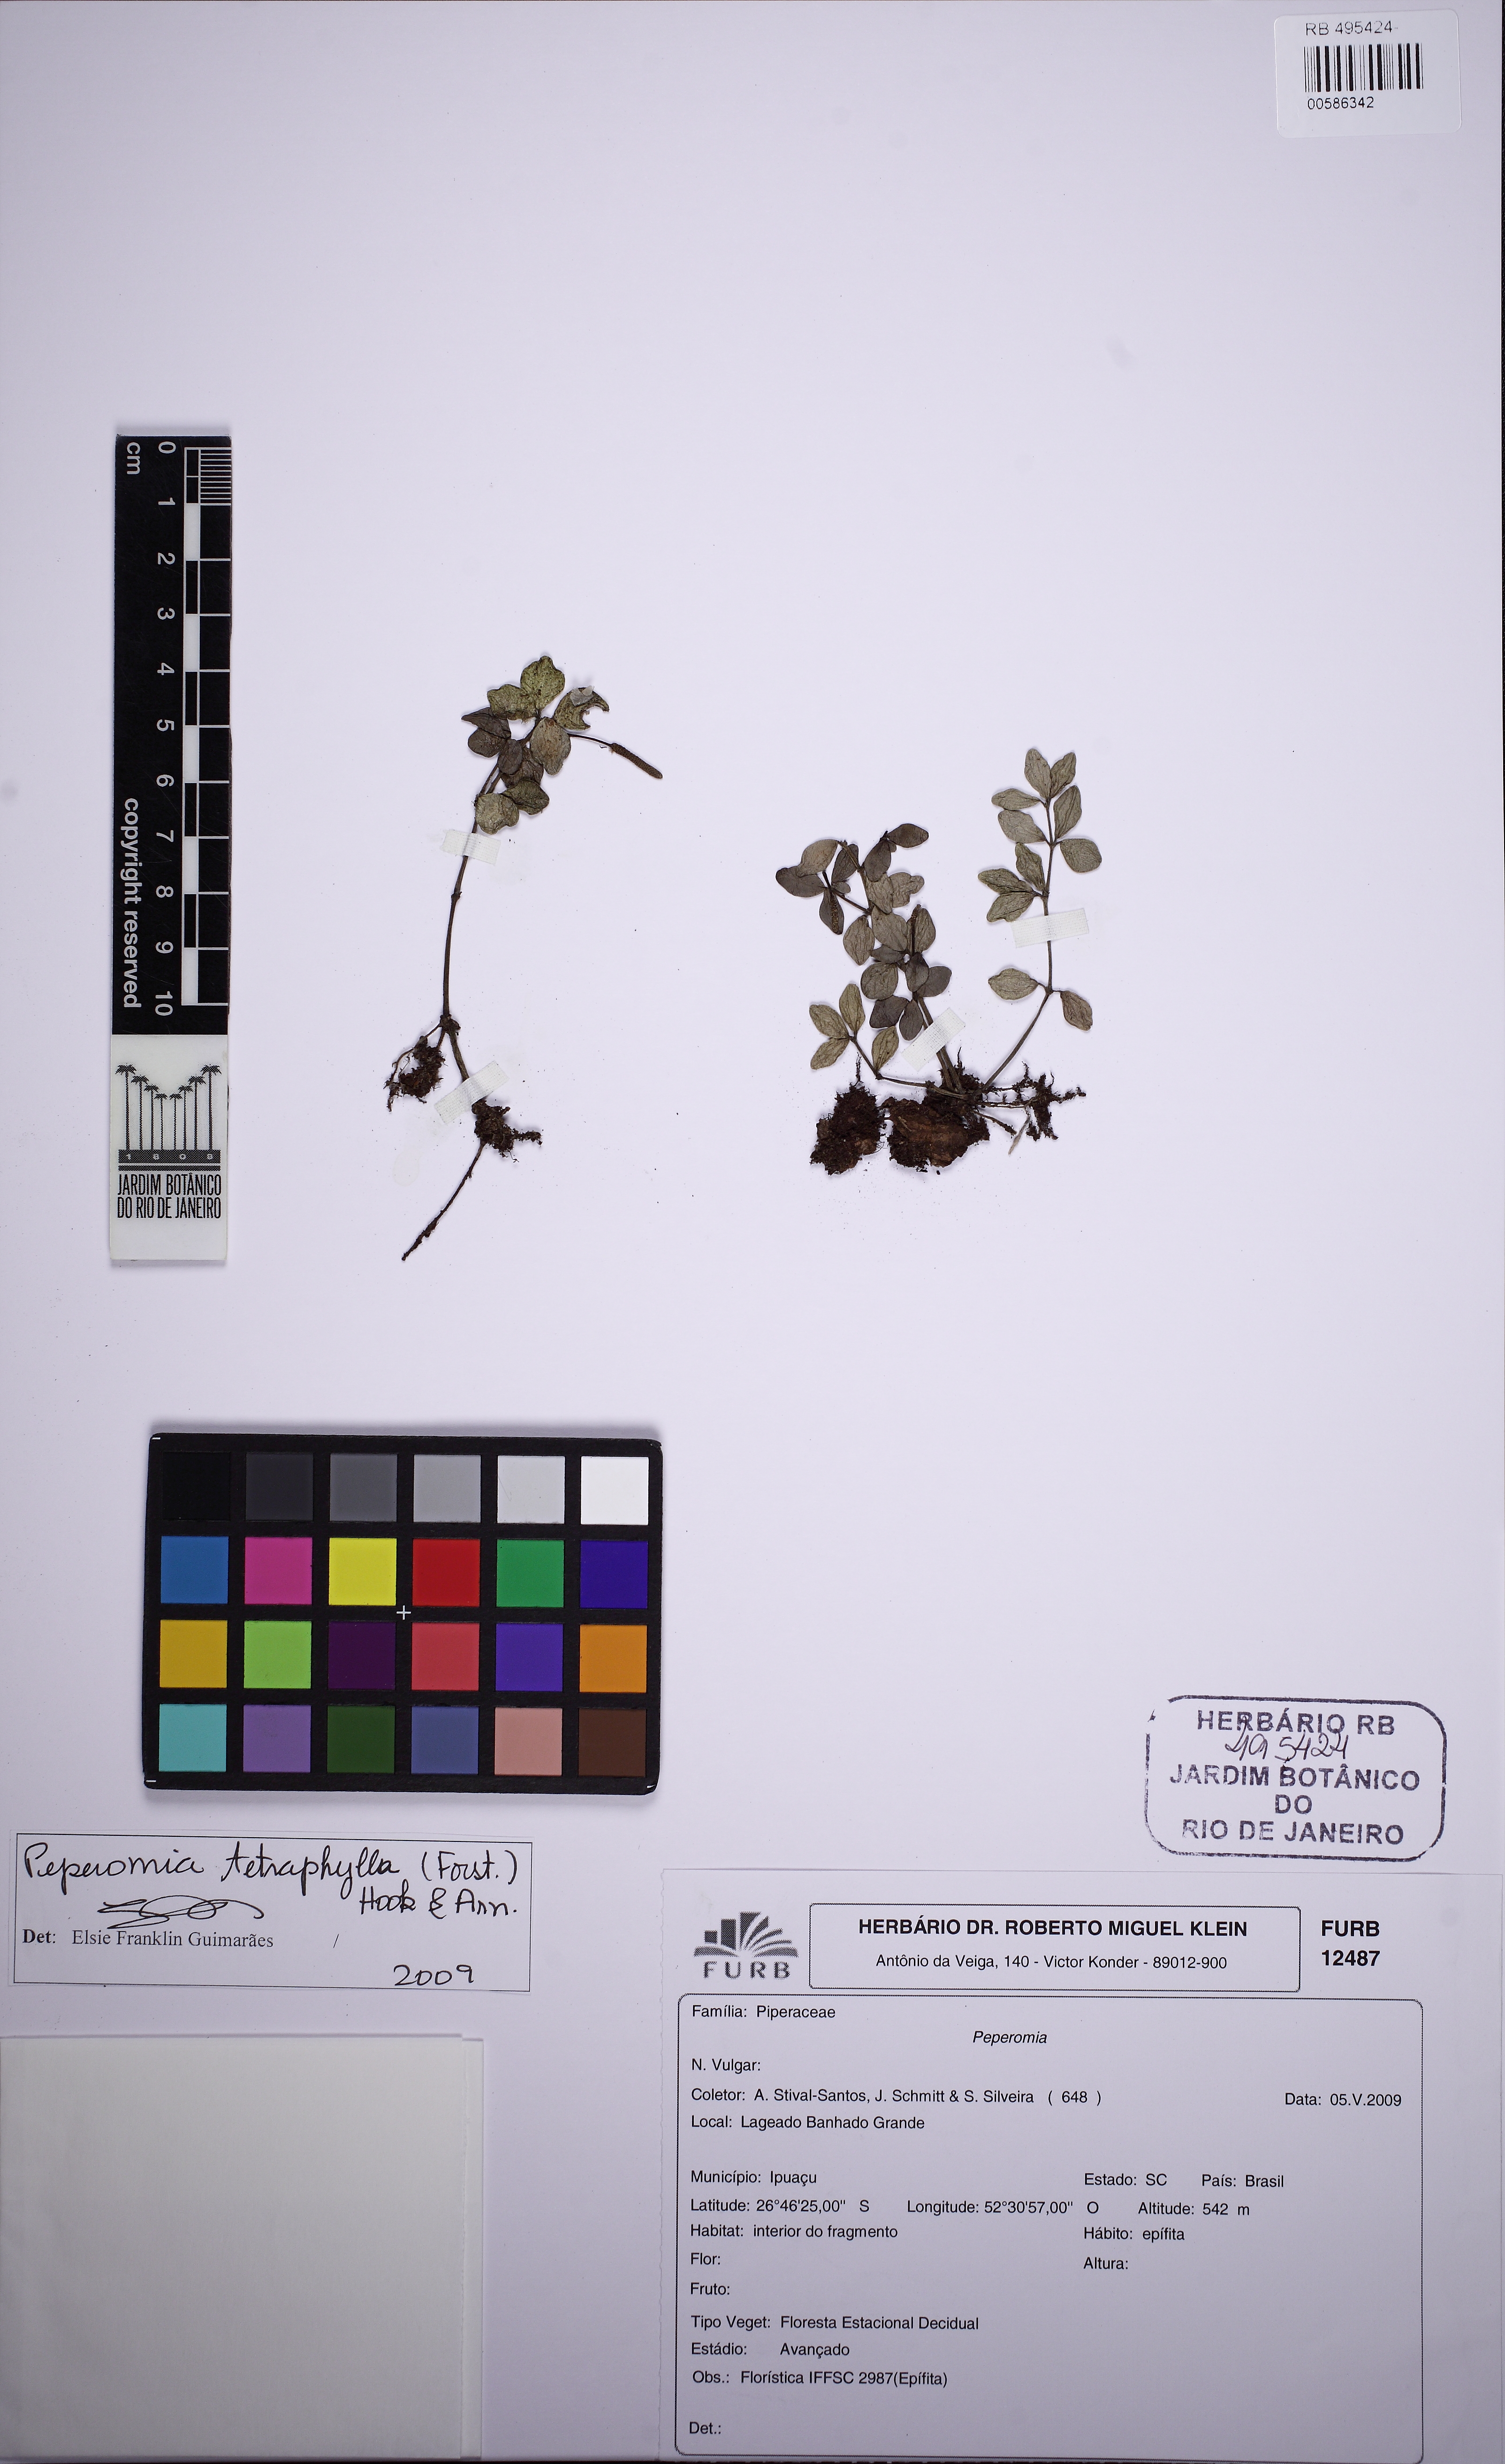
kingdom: Plantae
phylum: Tracheophyta
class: Magnoliopsida
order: Piperales
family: Piperaceae
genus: Peperomia
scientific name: Peperomia tetraphylla
